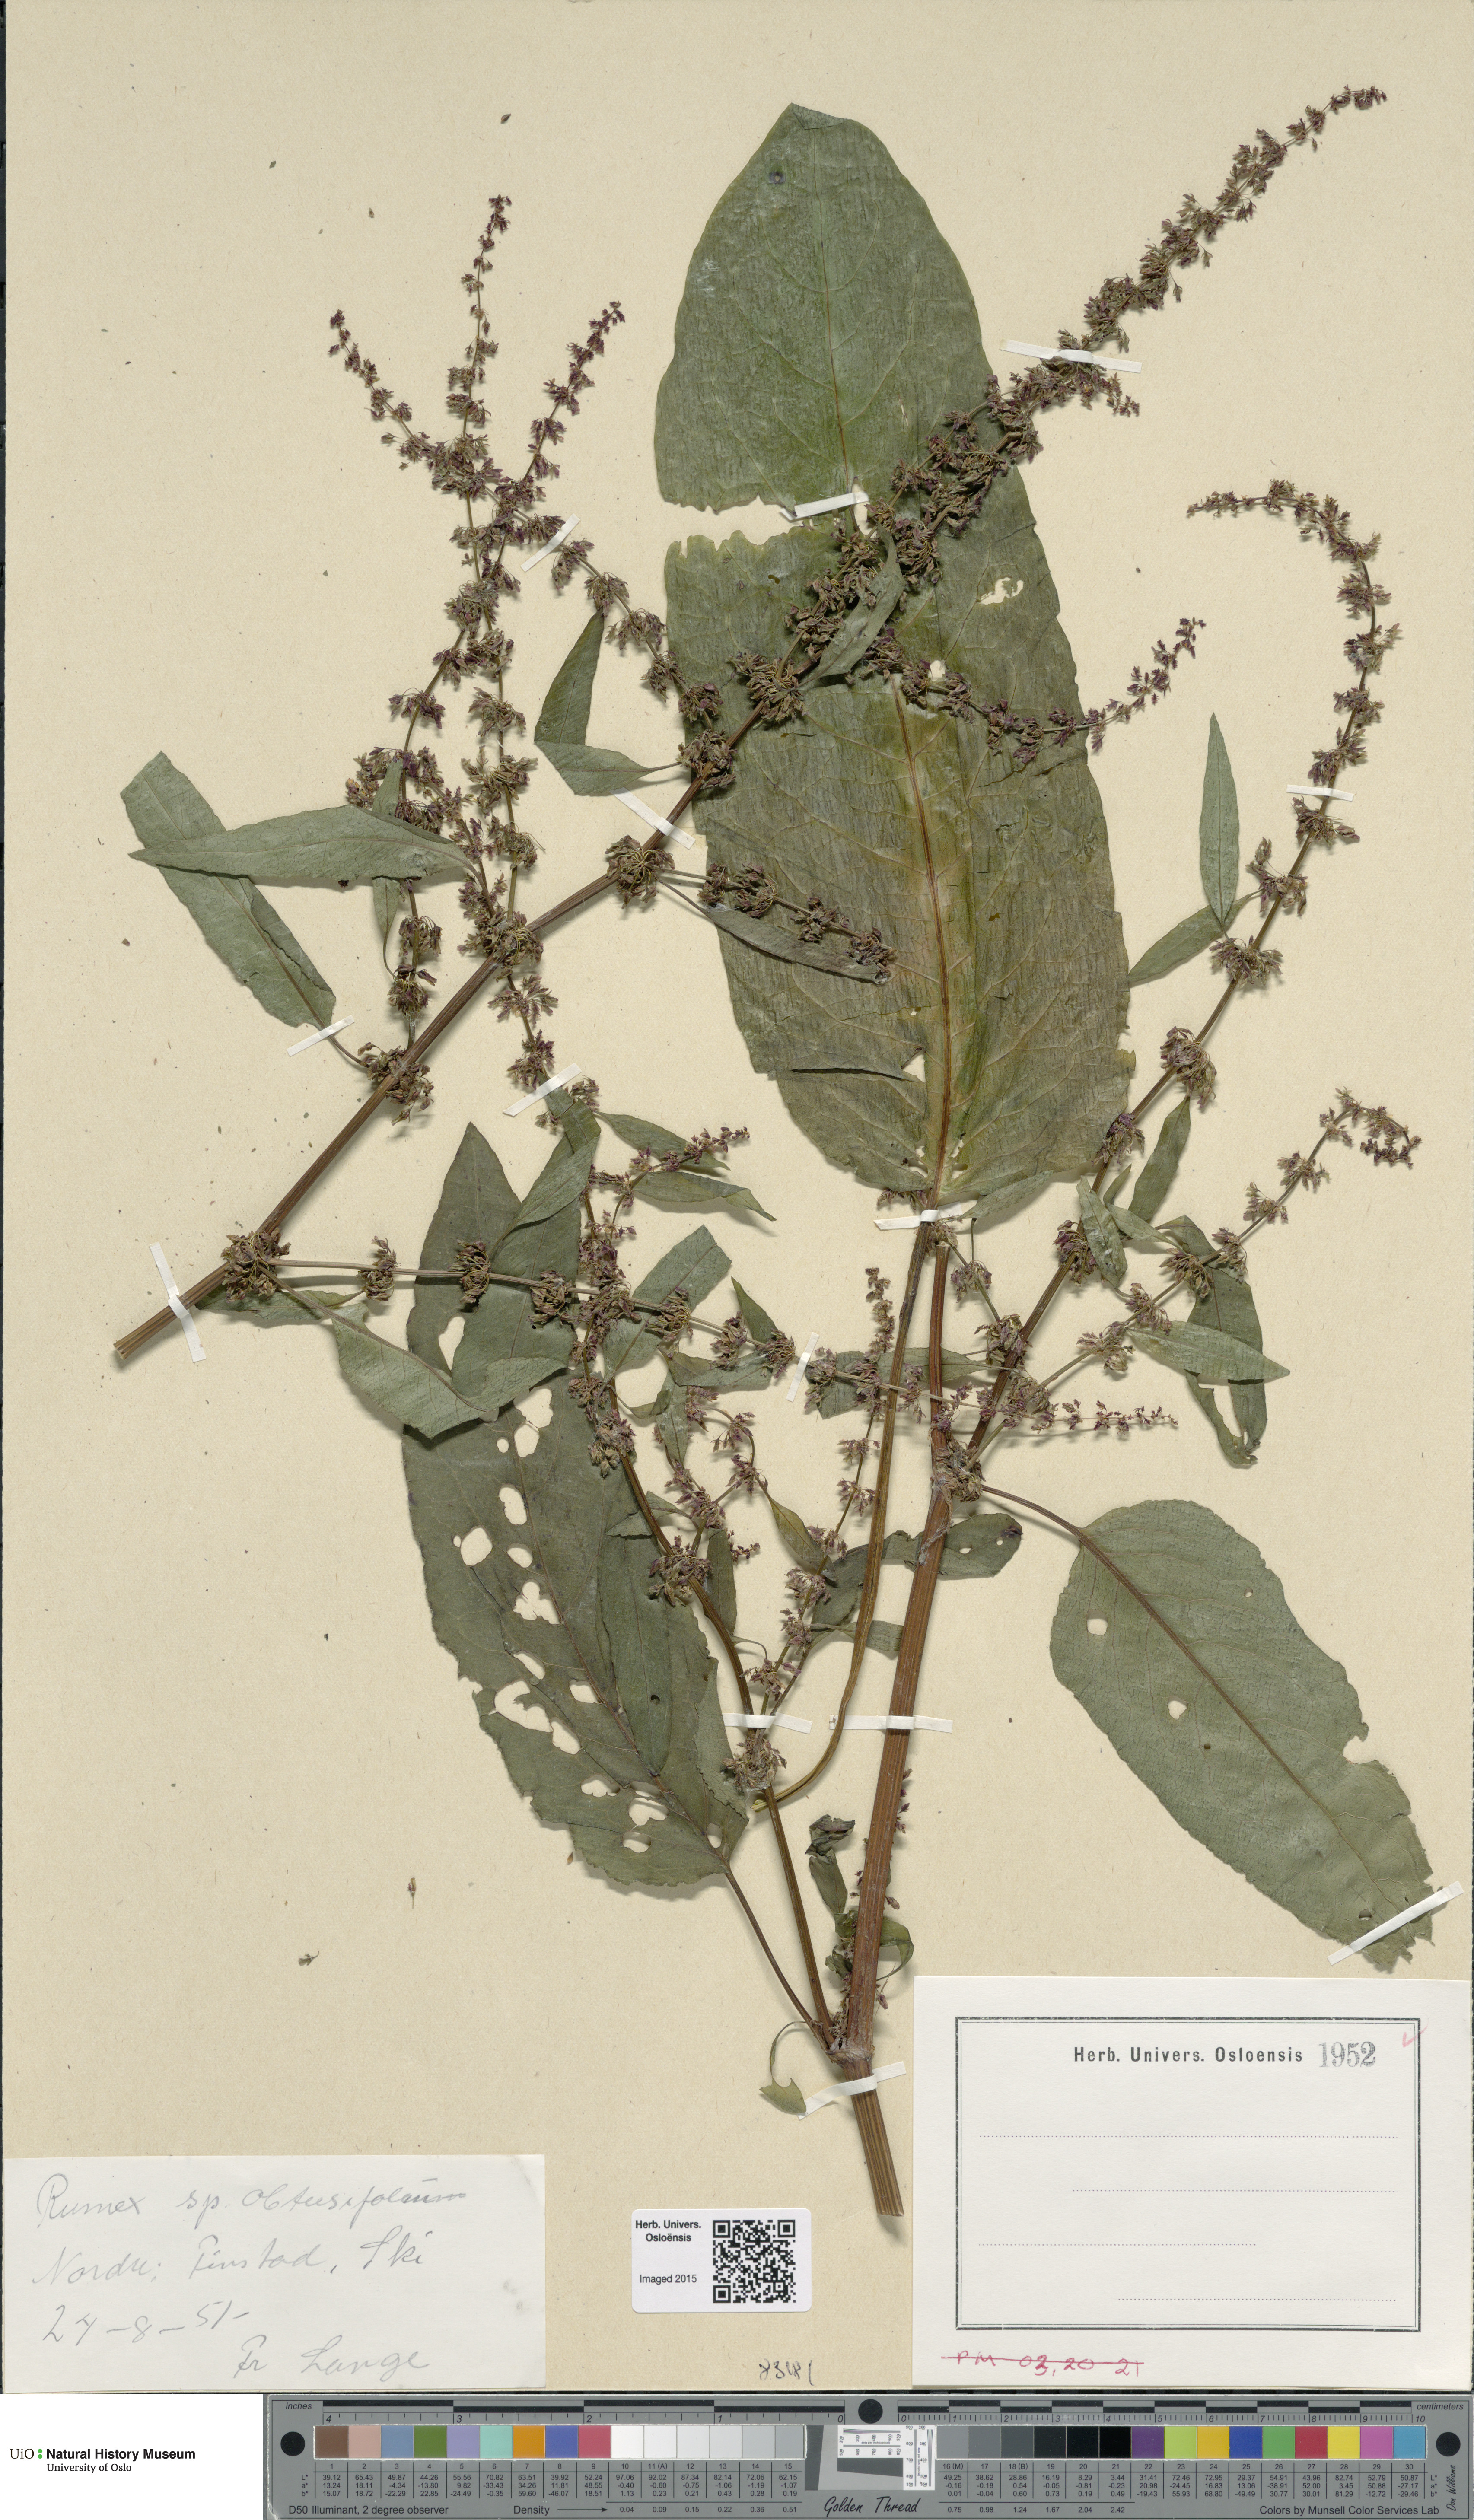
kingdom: Plantae
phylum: Tracheophyta
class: Magnoliopsida
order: Caryophyllales
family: Polygonaceae
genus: Rumex
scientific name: Rumex obtusifolius
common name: Bitter dock
